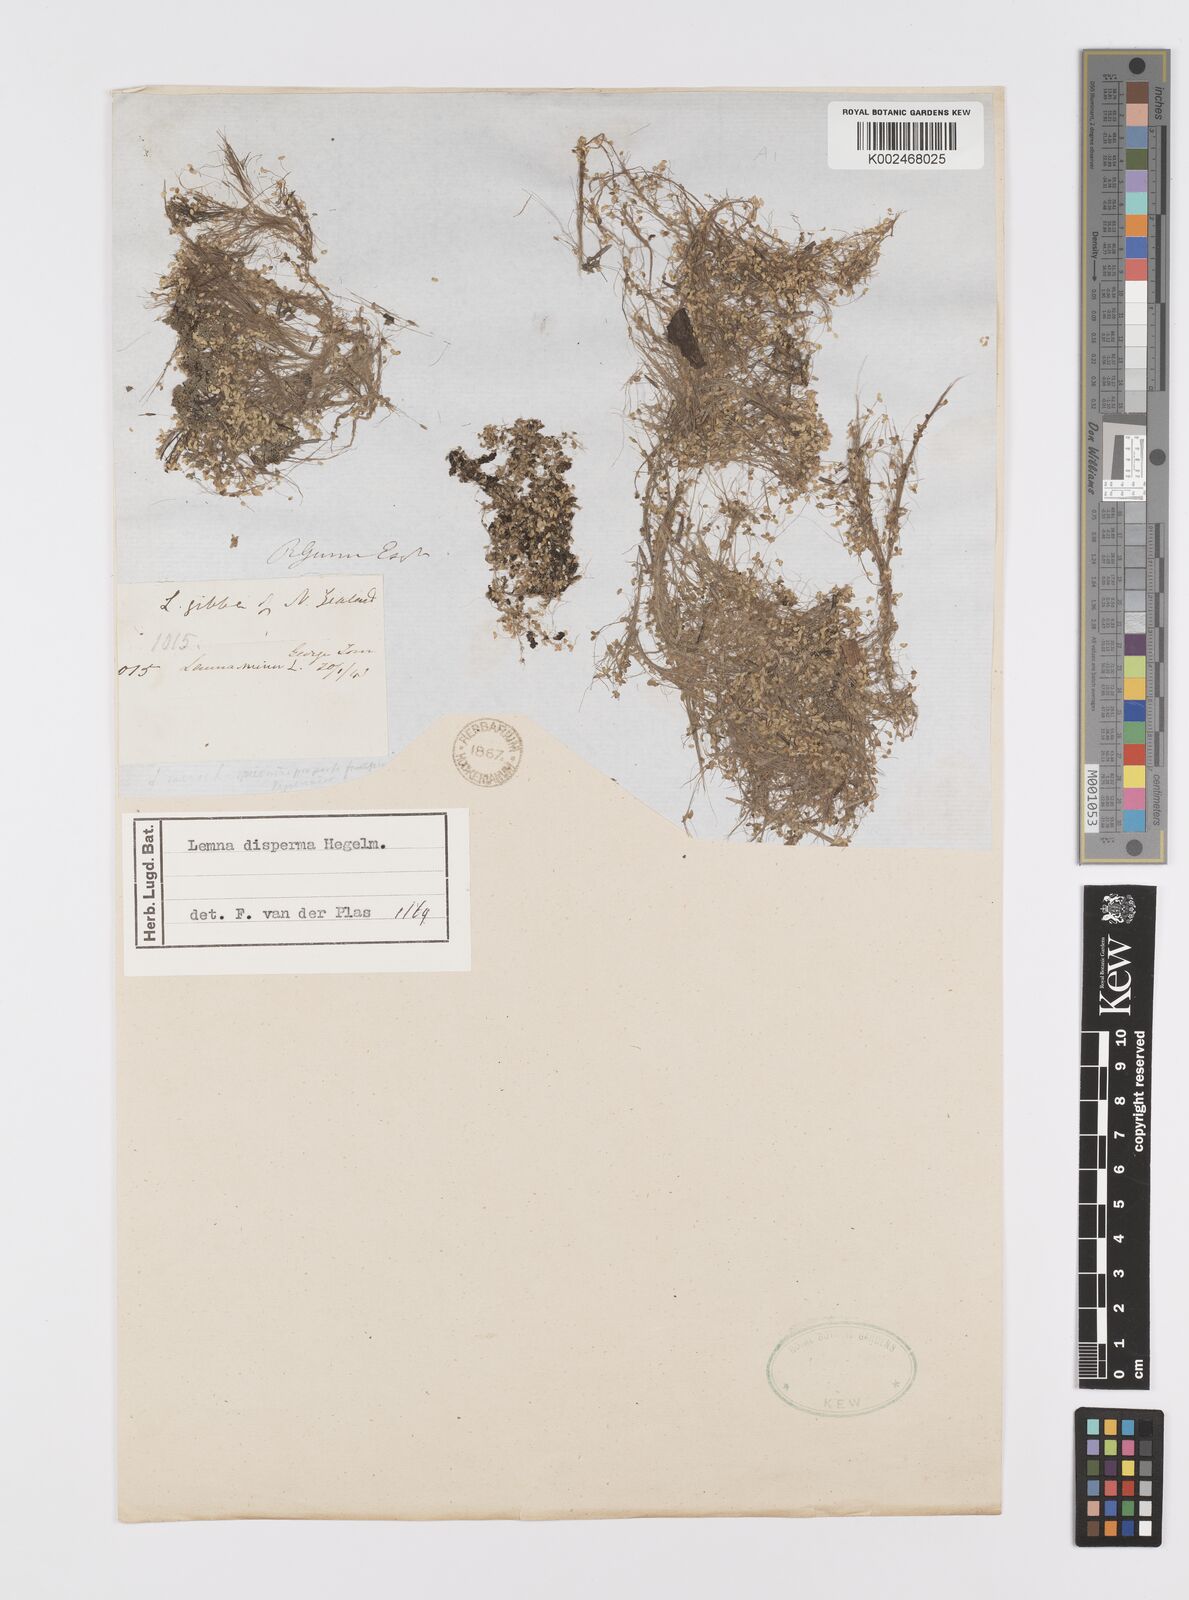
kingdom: Plantae
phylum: Tracheophyta
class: Liliopsida
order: Alismatales
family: Araceae
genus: Lemna
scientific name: Lemna disperma
